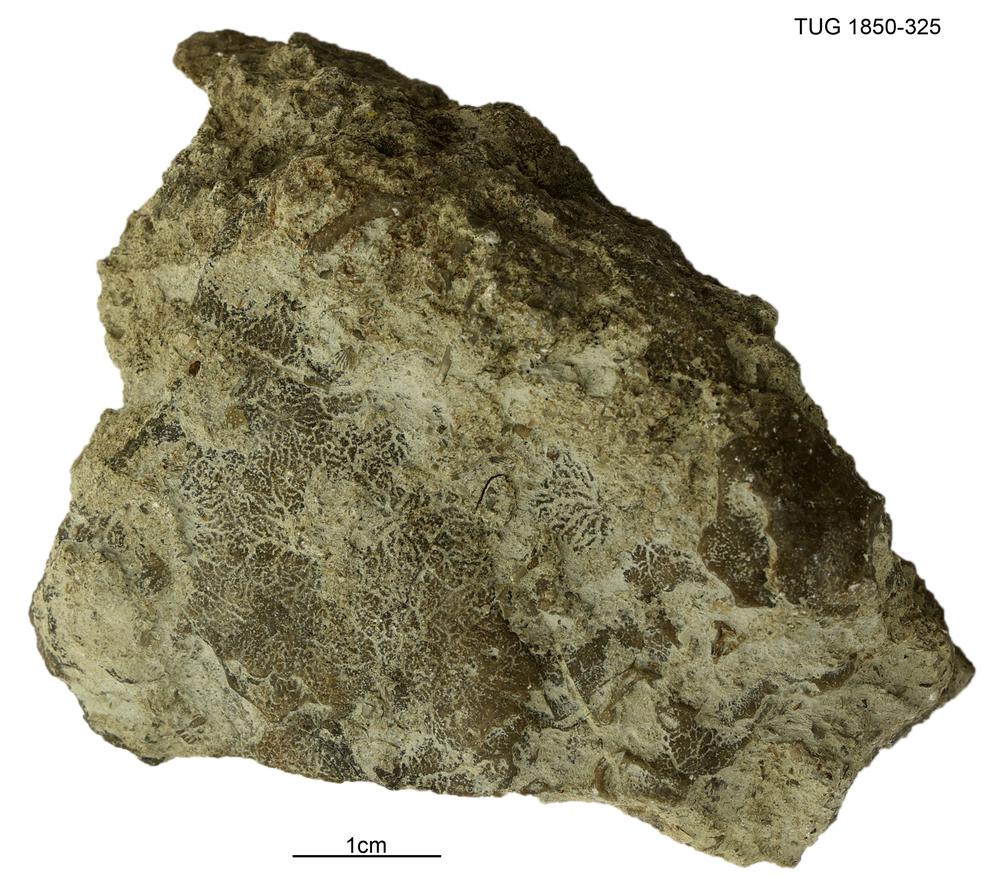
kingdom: Animalia
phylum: Porifera
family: Pseudolabechiidae
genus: Pseudolabechia
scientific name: Pseudolabechia
